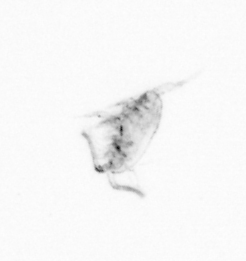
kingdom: Animalia
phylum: Arthropoda
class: Copepoda
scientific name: Copepoda
